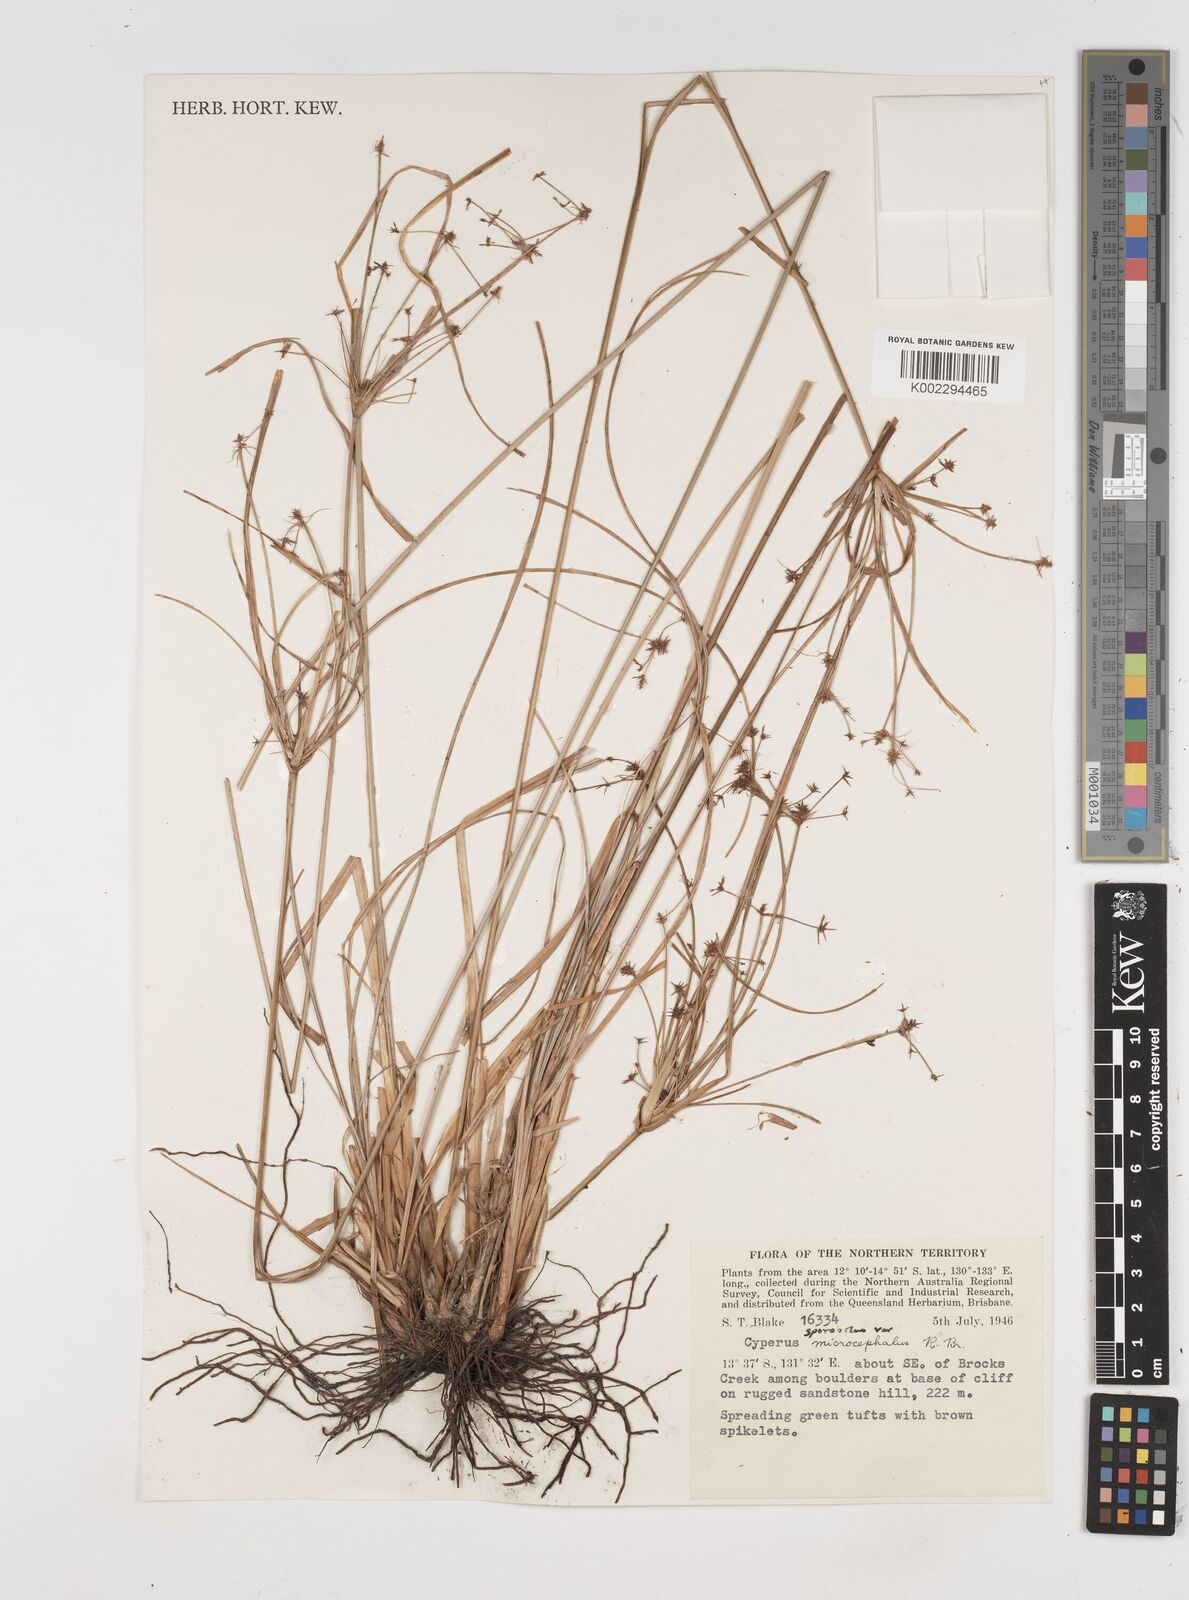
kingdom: Plantae
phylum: Tracheophyta
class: Liliopsida
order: Poales
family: Cyperaceae
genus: Cyperus
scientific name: Cyperus microcephalus
